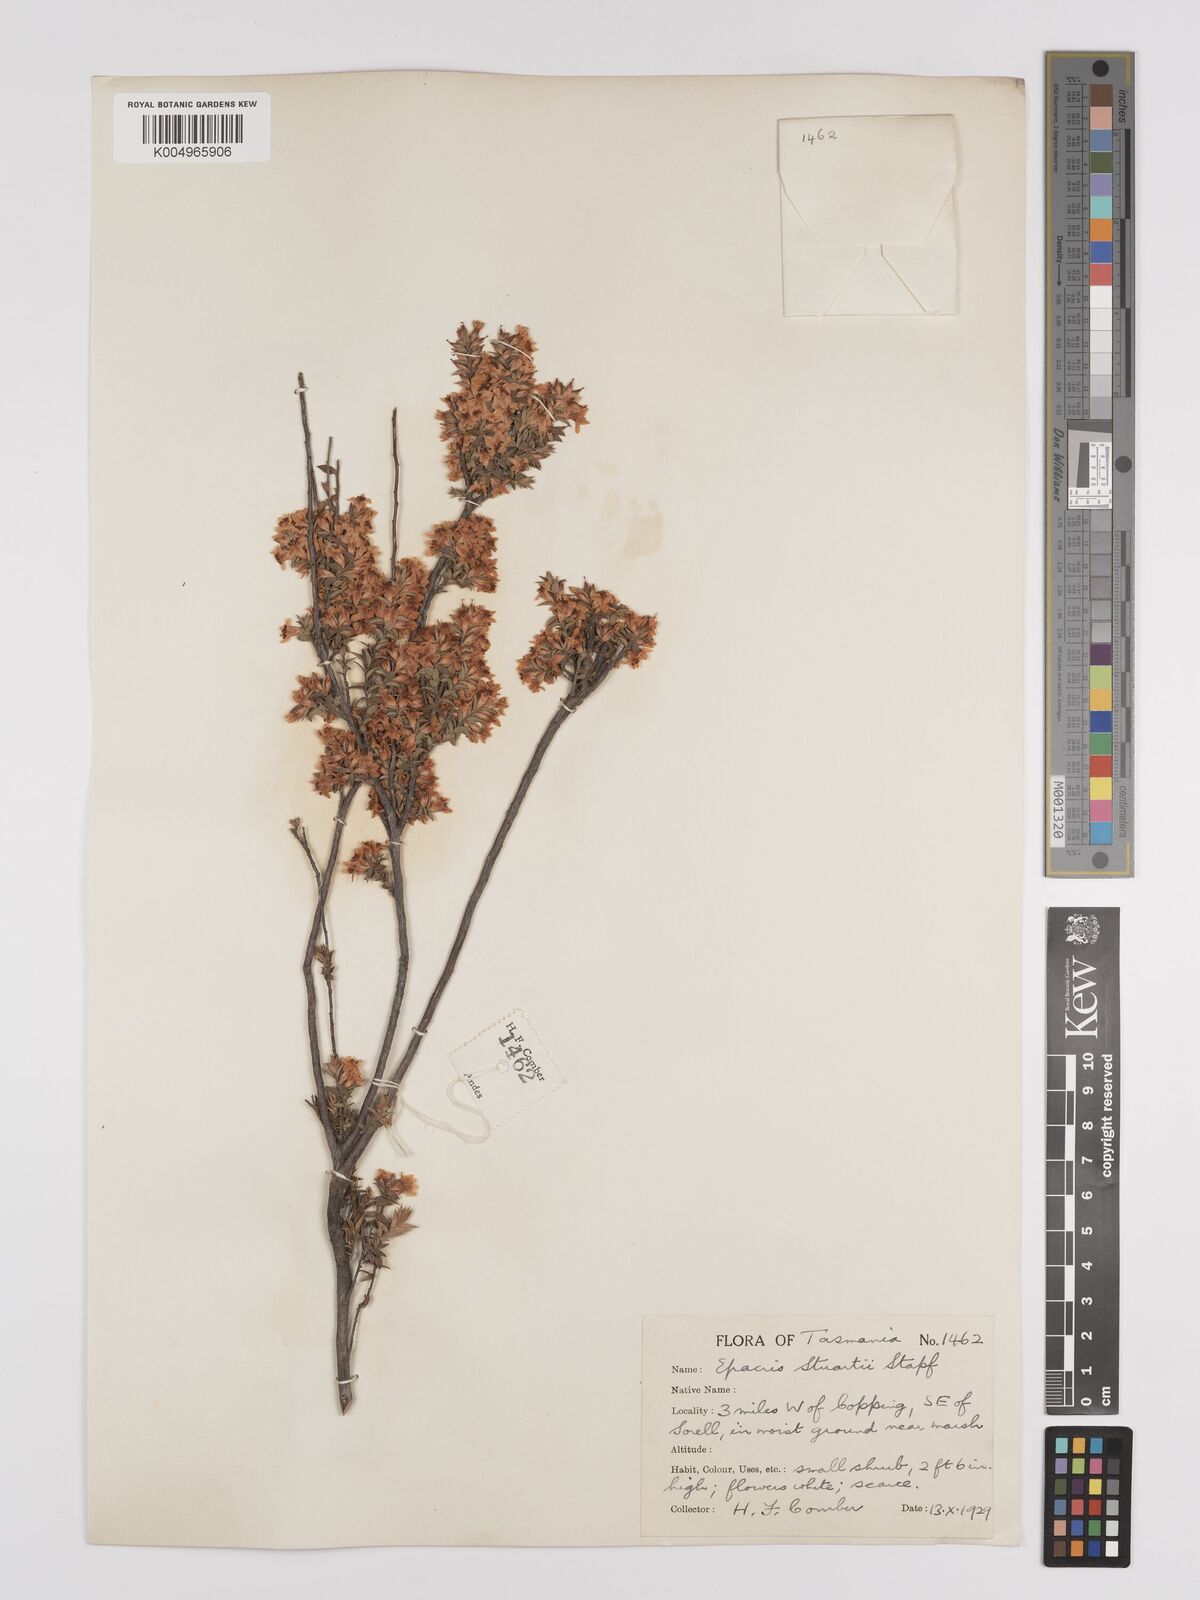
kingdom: Plantae
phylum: Tracheophyta
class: Magnoliopsida
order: Ericales
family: Ericaceae
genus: Epacris
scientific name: Epacris stuartii
